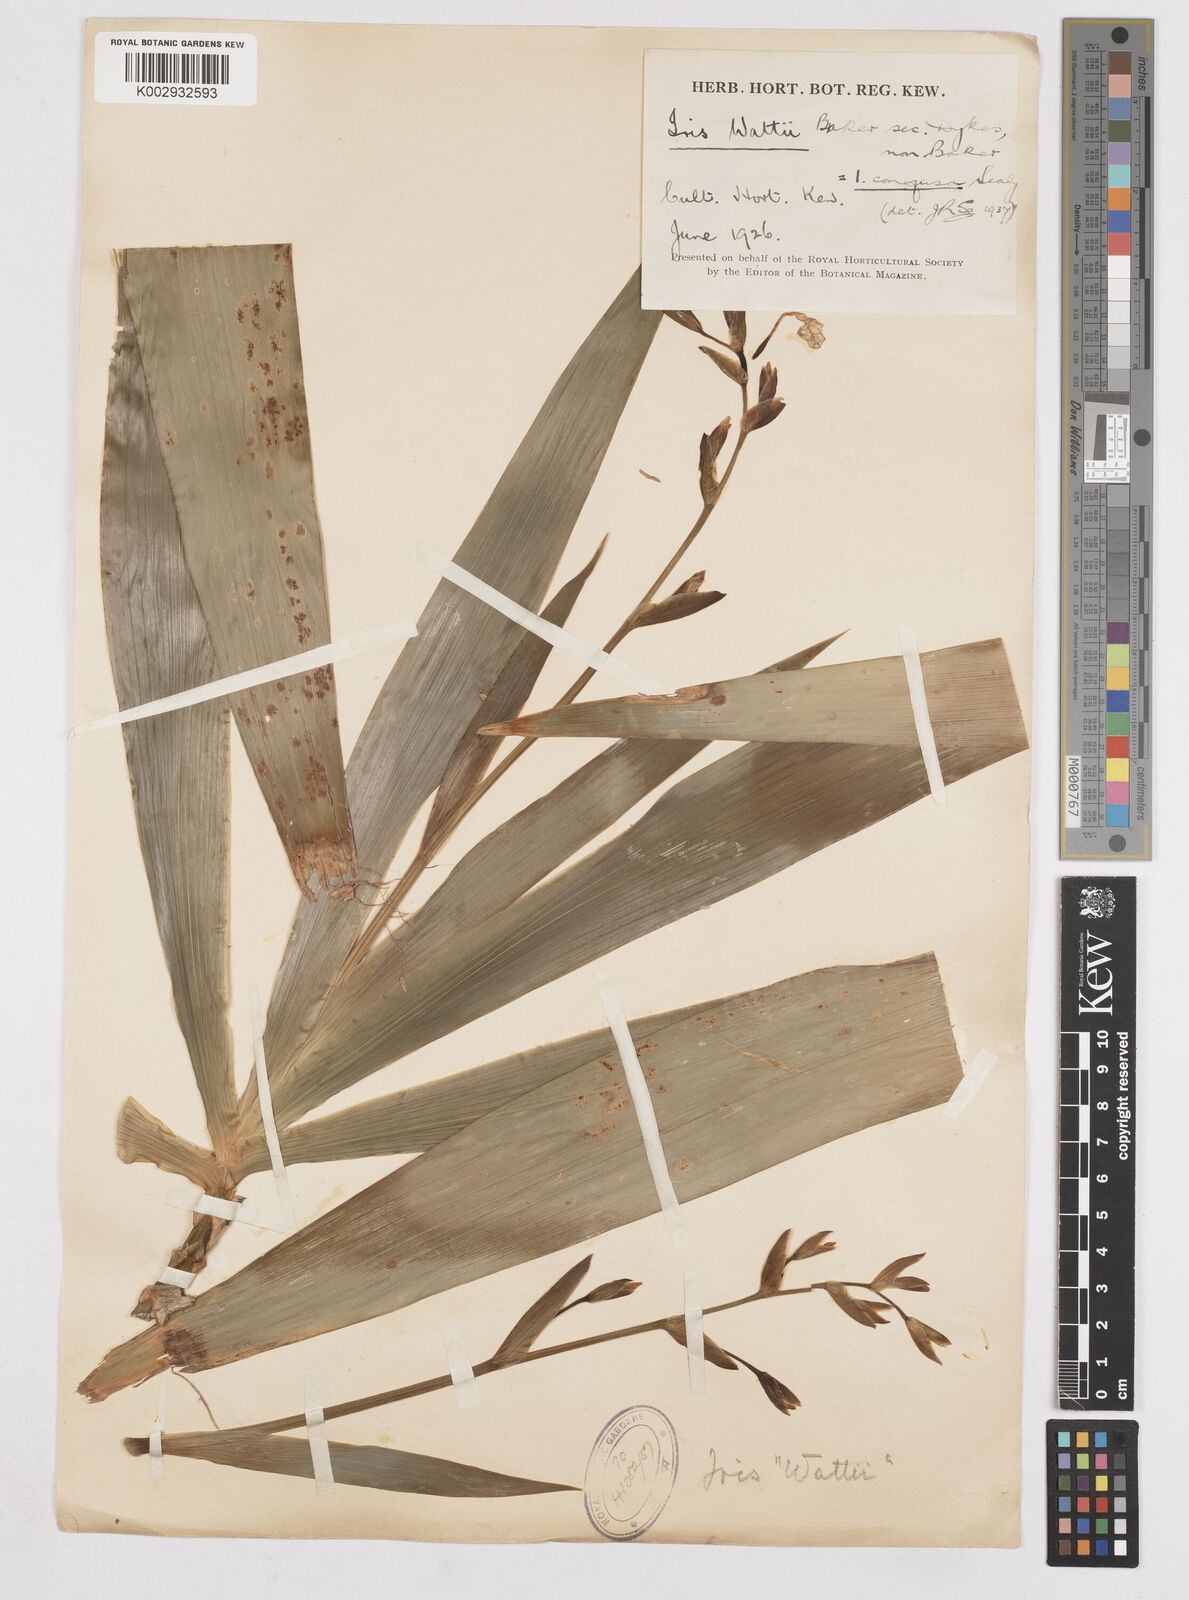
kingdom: Plantae
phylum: Tracheophyta
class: Liliopsida
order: Asparagales
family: Iridaceae
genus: Iris
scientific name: Iris wattii
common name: Fan-shape iris
